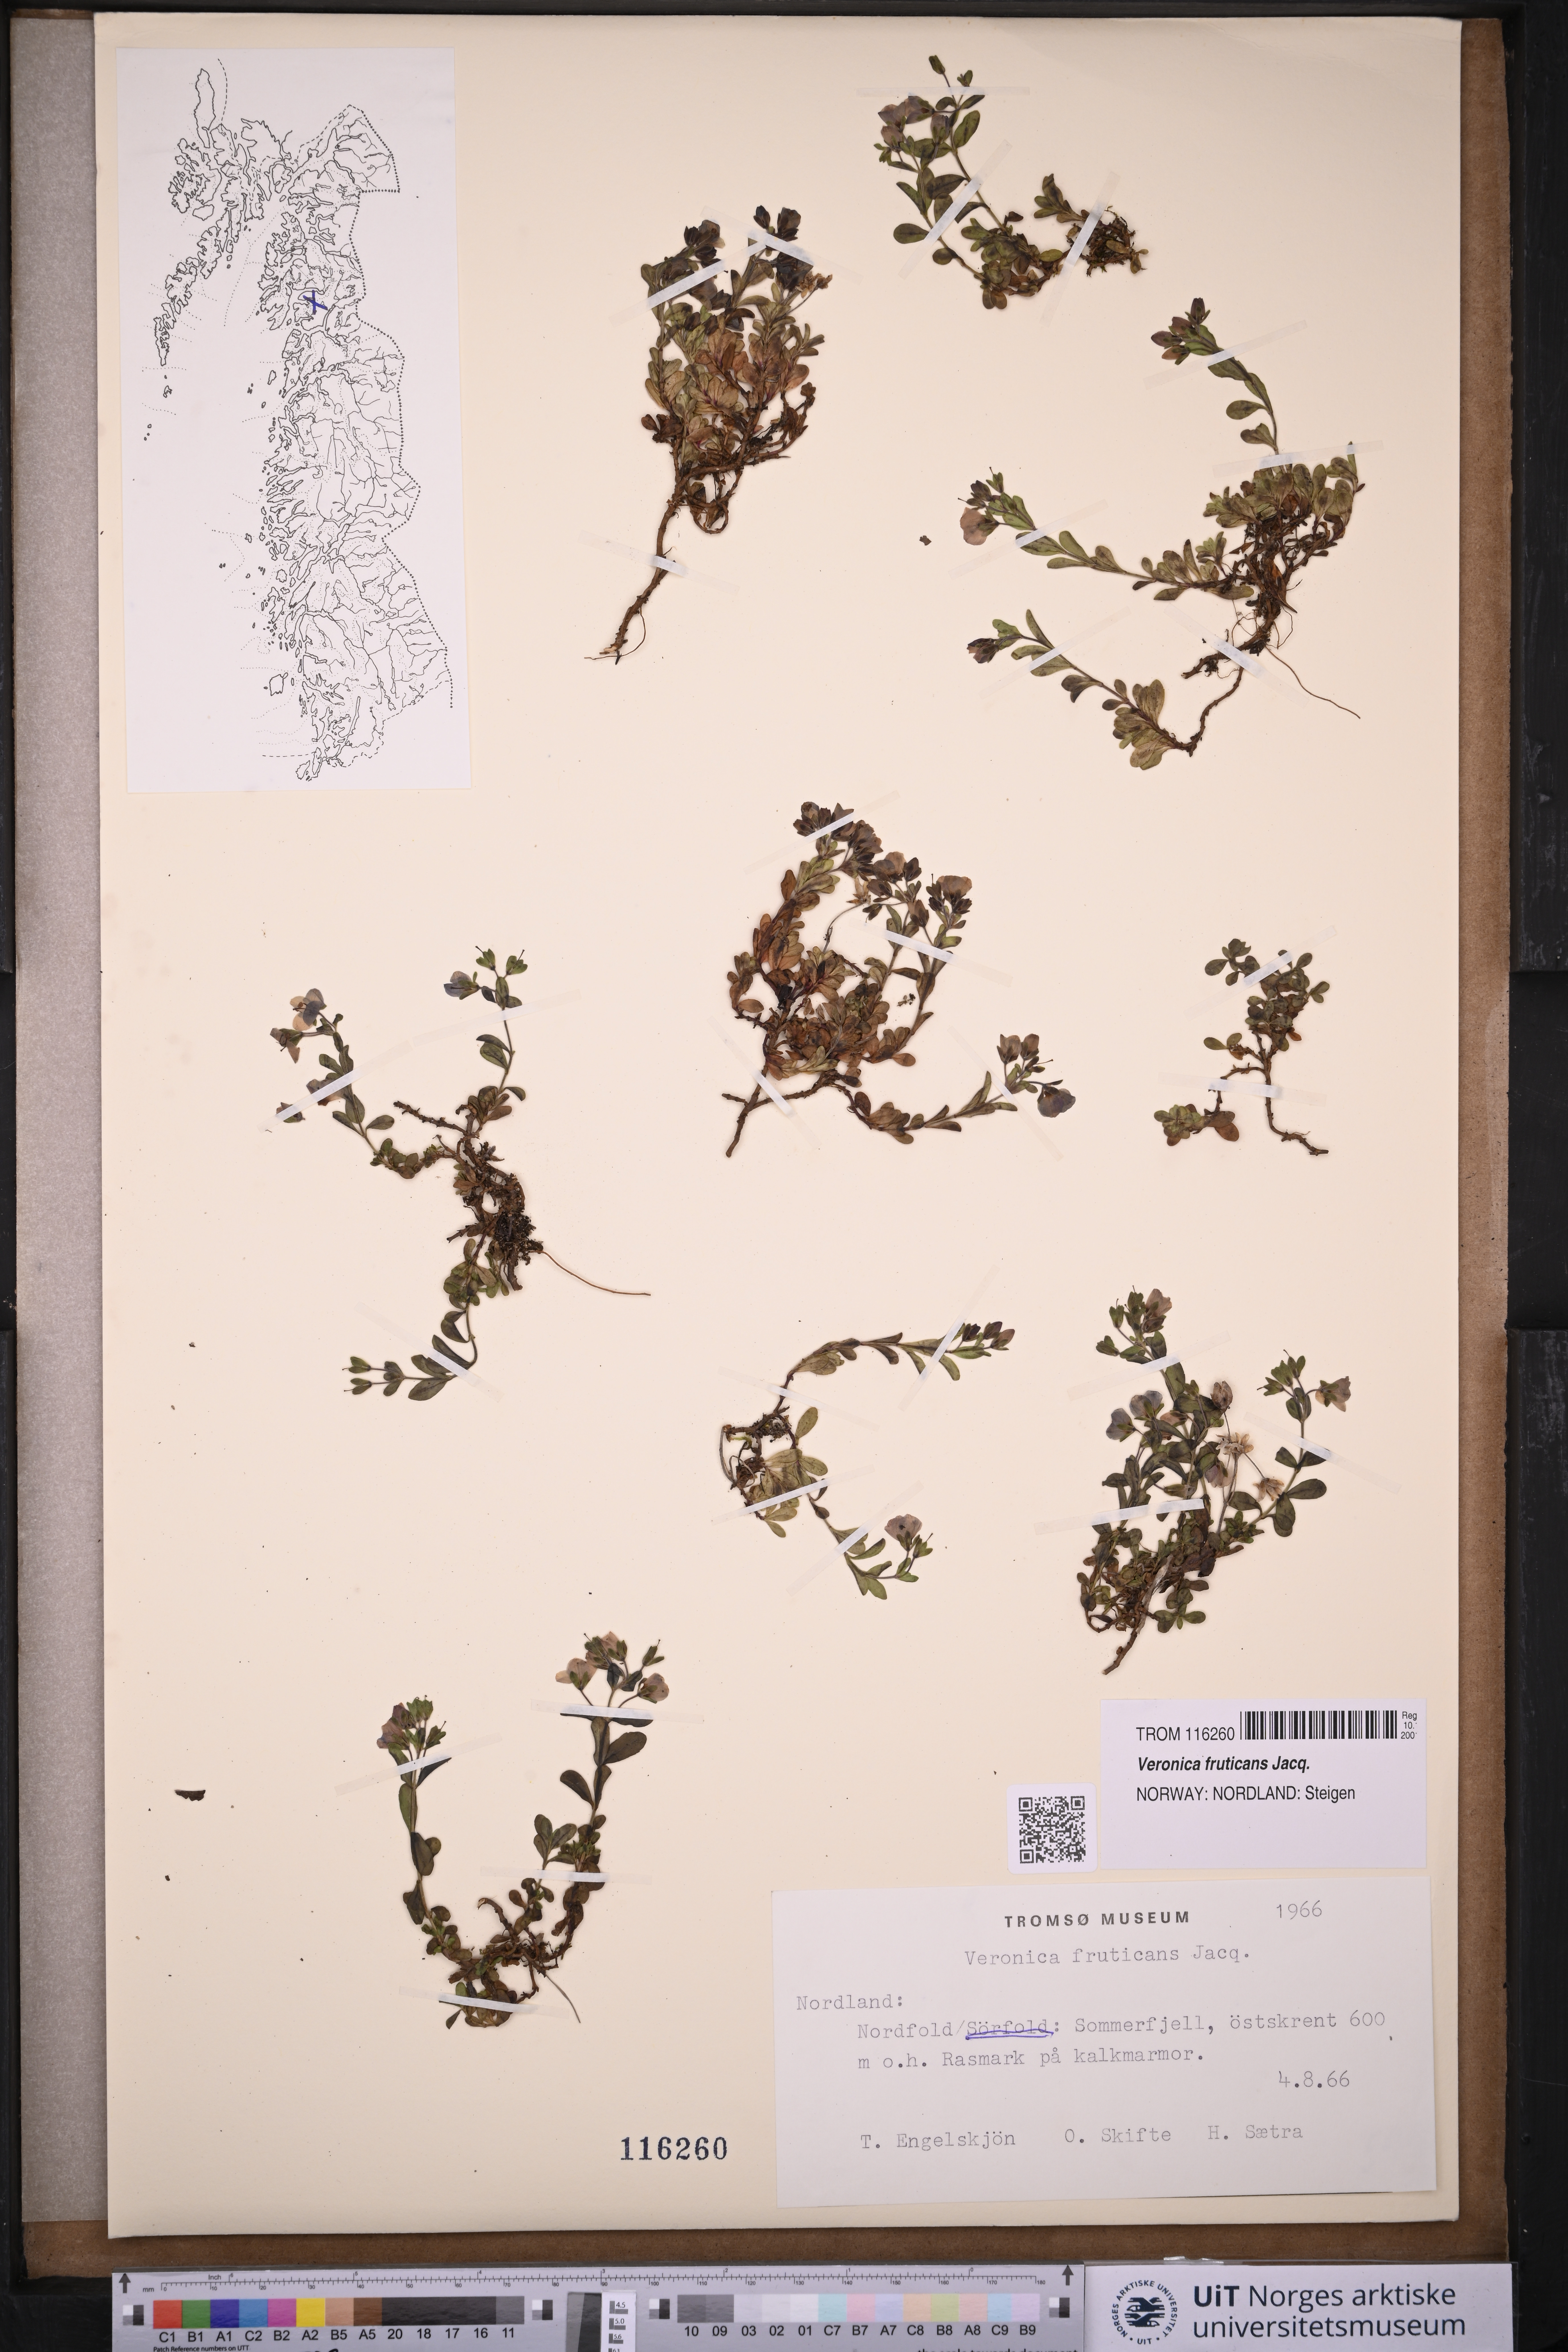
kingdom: Plantae
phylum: Tracheophyta
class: Magnoliopsida
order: Lamiales
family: Plantaginaceae
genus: Veronica
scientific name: Veronica fruticans
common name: Rock speedwell
